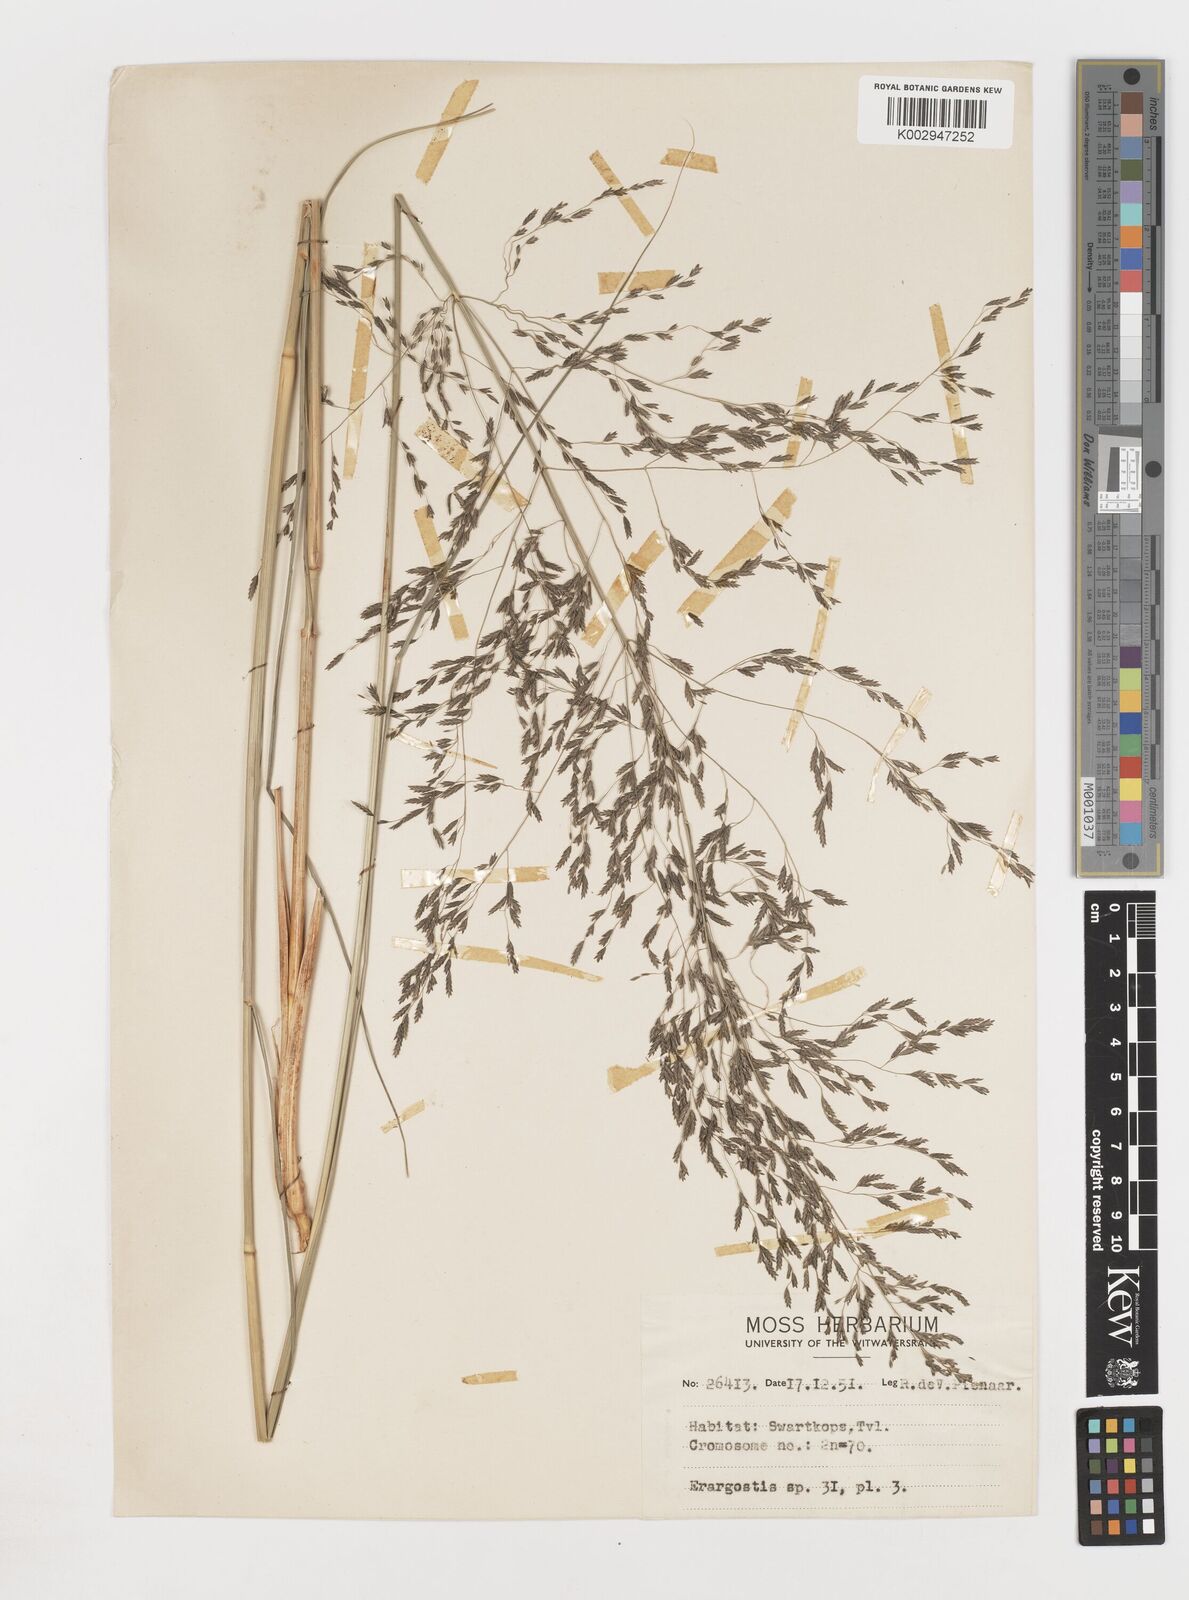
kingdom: Plantae
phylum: Tracheophyta
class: Liliopsida
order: Poales
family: Poaceae
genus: Eragrostis
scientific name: Eragrostis
